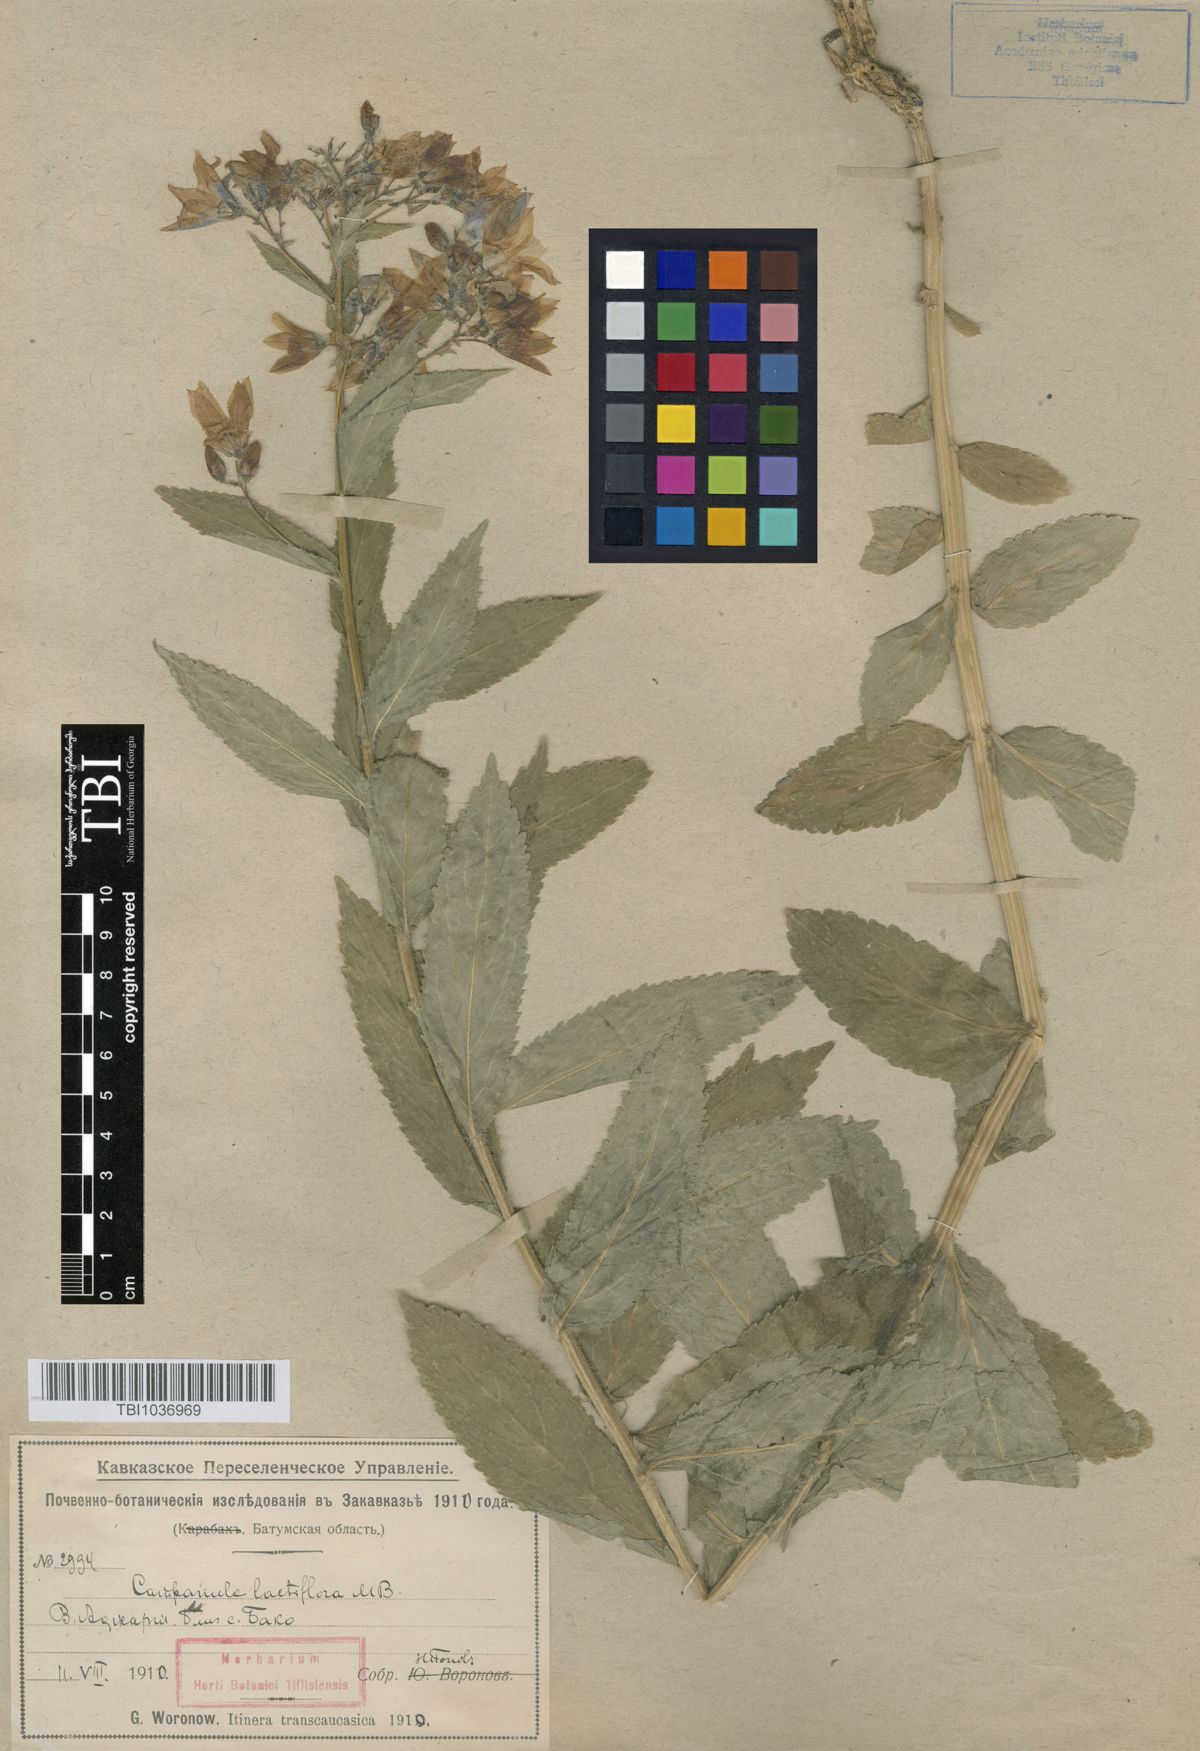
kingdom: Plantae
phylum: Tracheophyta
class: Magnoliopsida
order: Asterales
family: Campanulaceae
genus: Campanula
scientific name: Campanula lactiflora
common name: Milky bellflower
